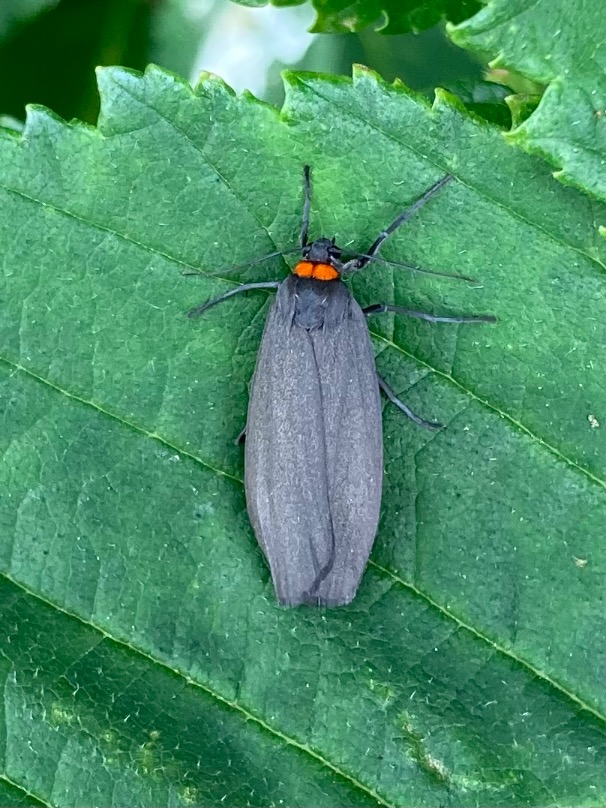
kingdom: Animalia
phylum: Arthropoda
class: Insecta
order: Lepidoptera
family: Erebidae
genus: Atolmis
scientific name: Atolmis rubricollis
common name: Blodnakke
